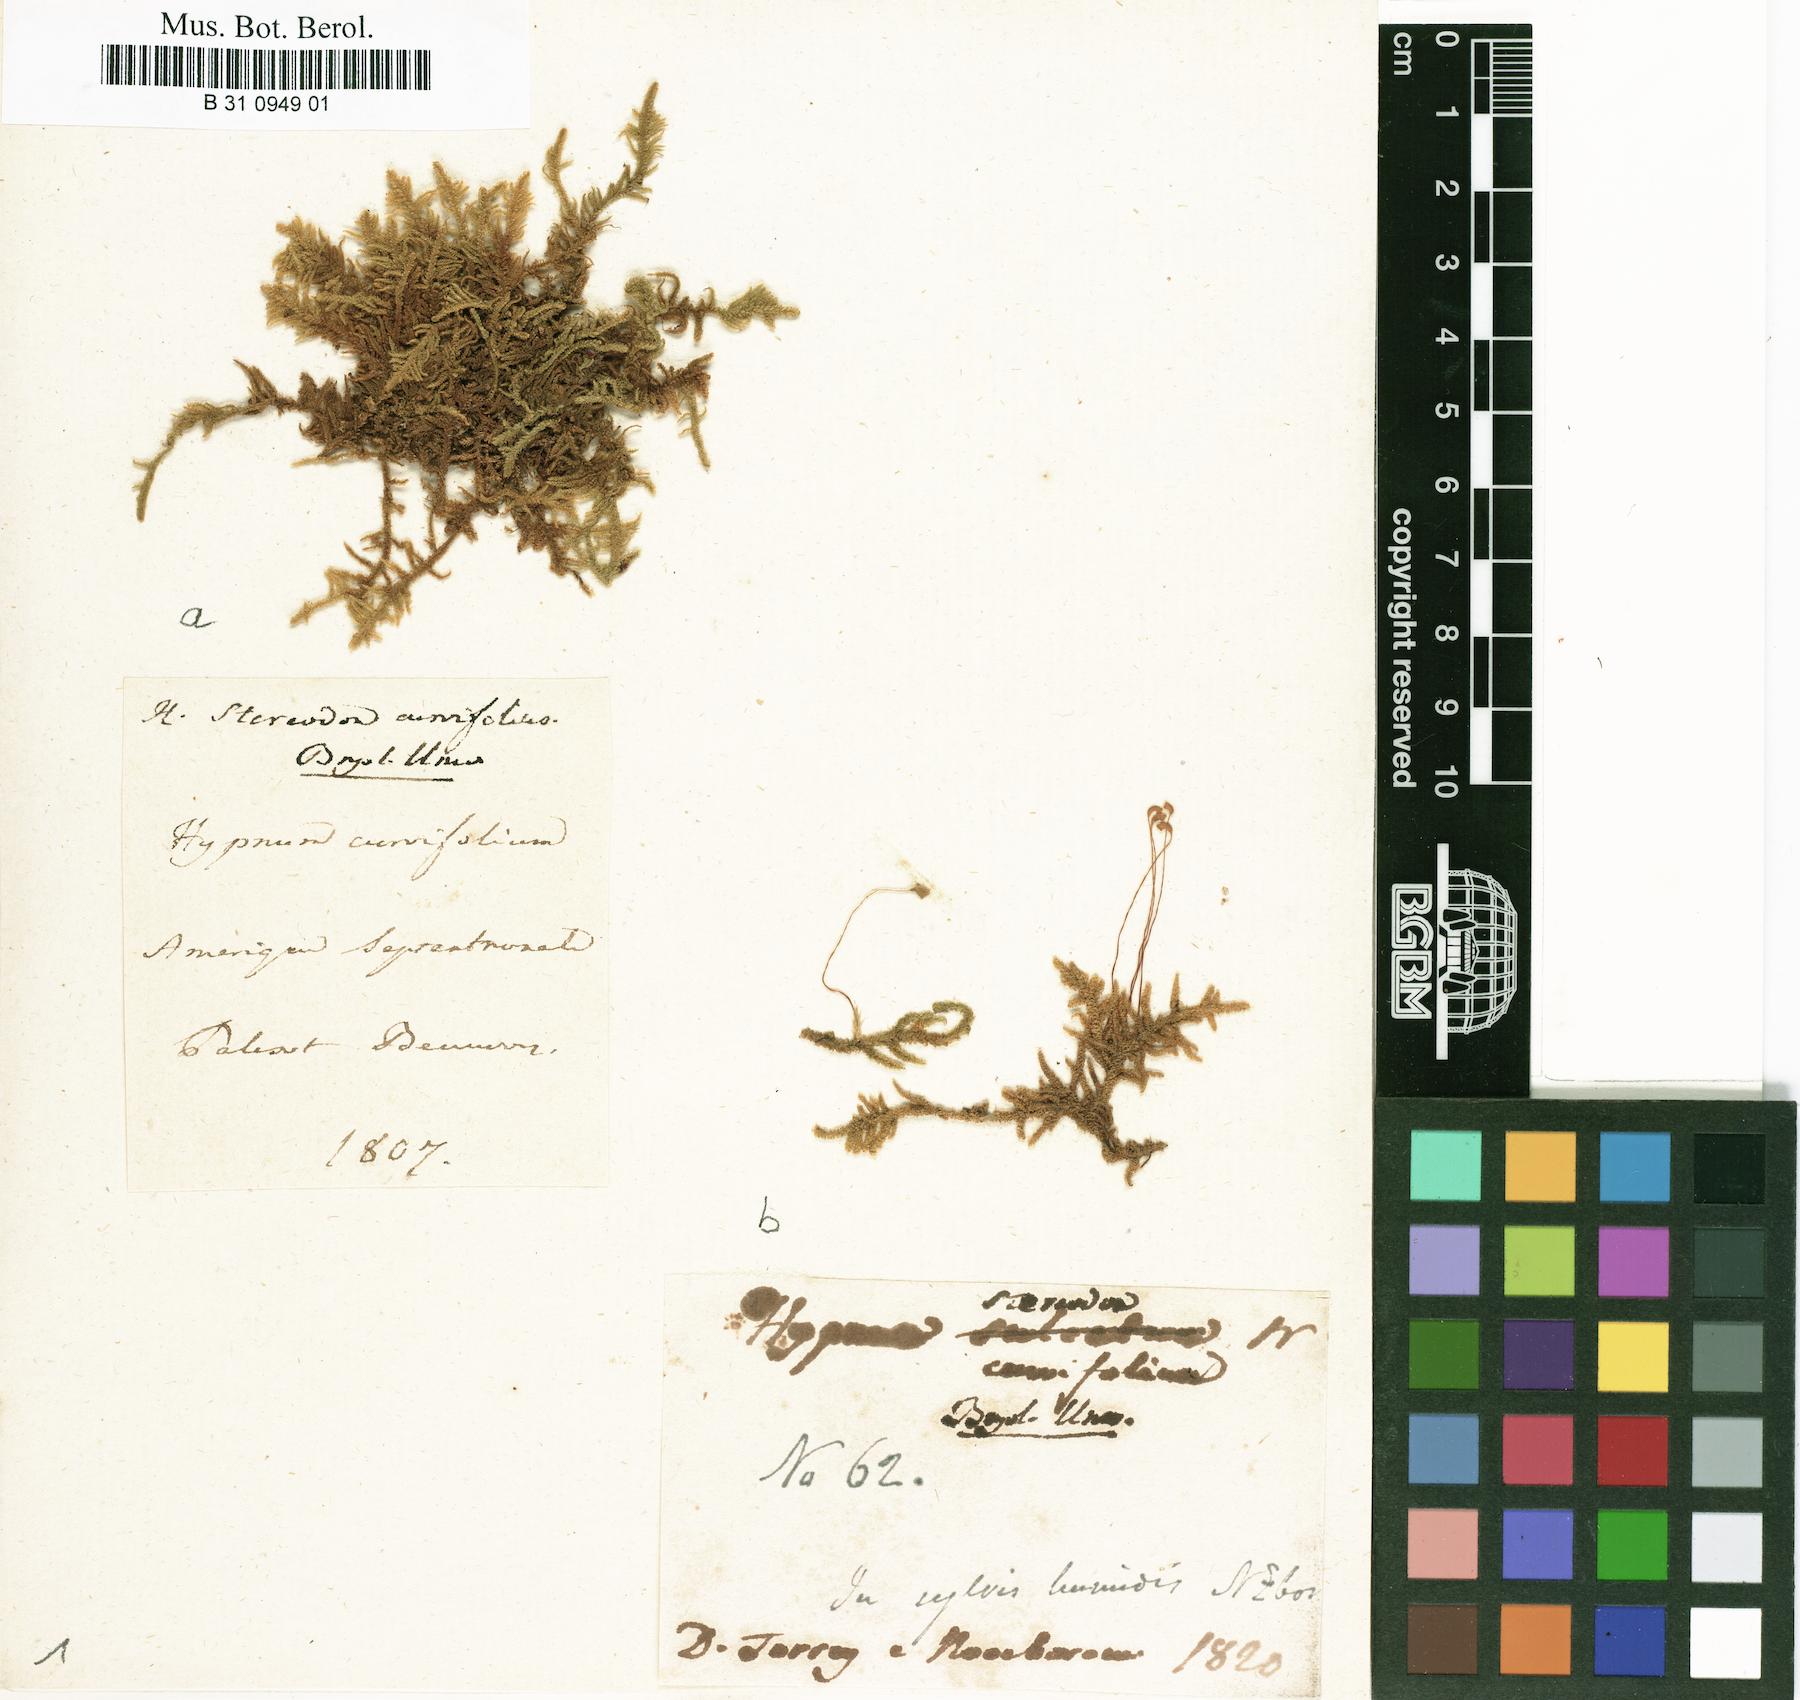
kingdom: Plantae
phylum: Bryophyta
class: Bryopsida
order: Hypnales
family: Pylaisiaceae
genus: Calliergonella
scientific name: Calliergonella curvifolia
